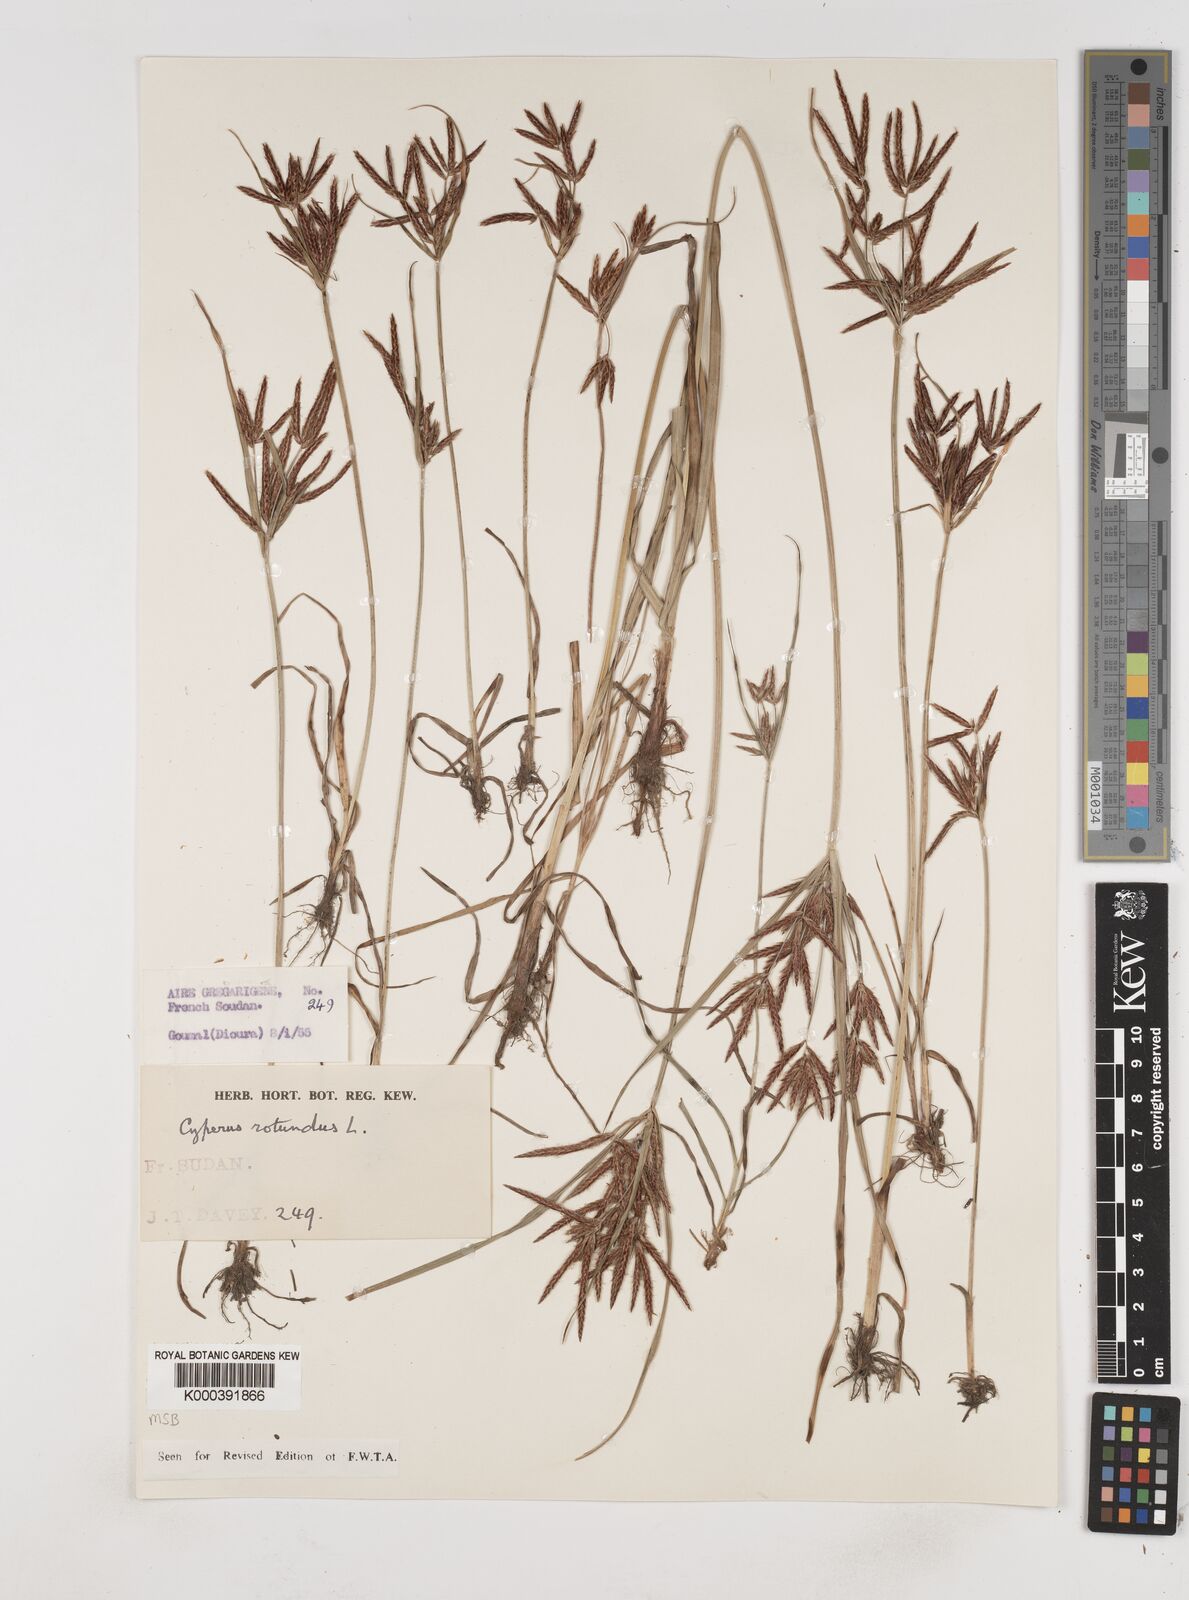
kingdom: Plantae
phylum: Tracheophyta
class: Liliopsida
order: Poales
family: Cyperaceae
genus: Cyperus
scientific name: Cyperus rotundus
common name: Nutgrass
